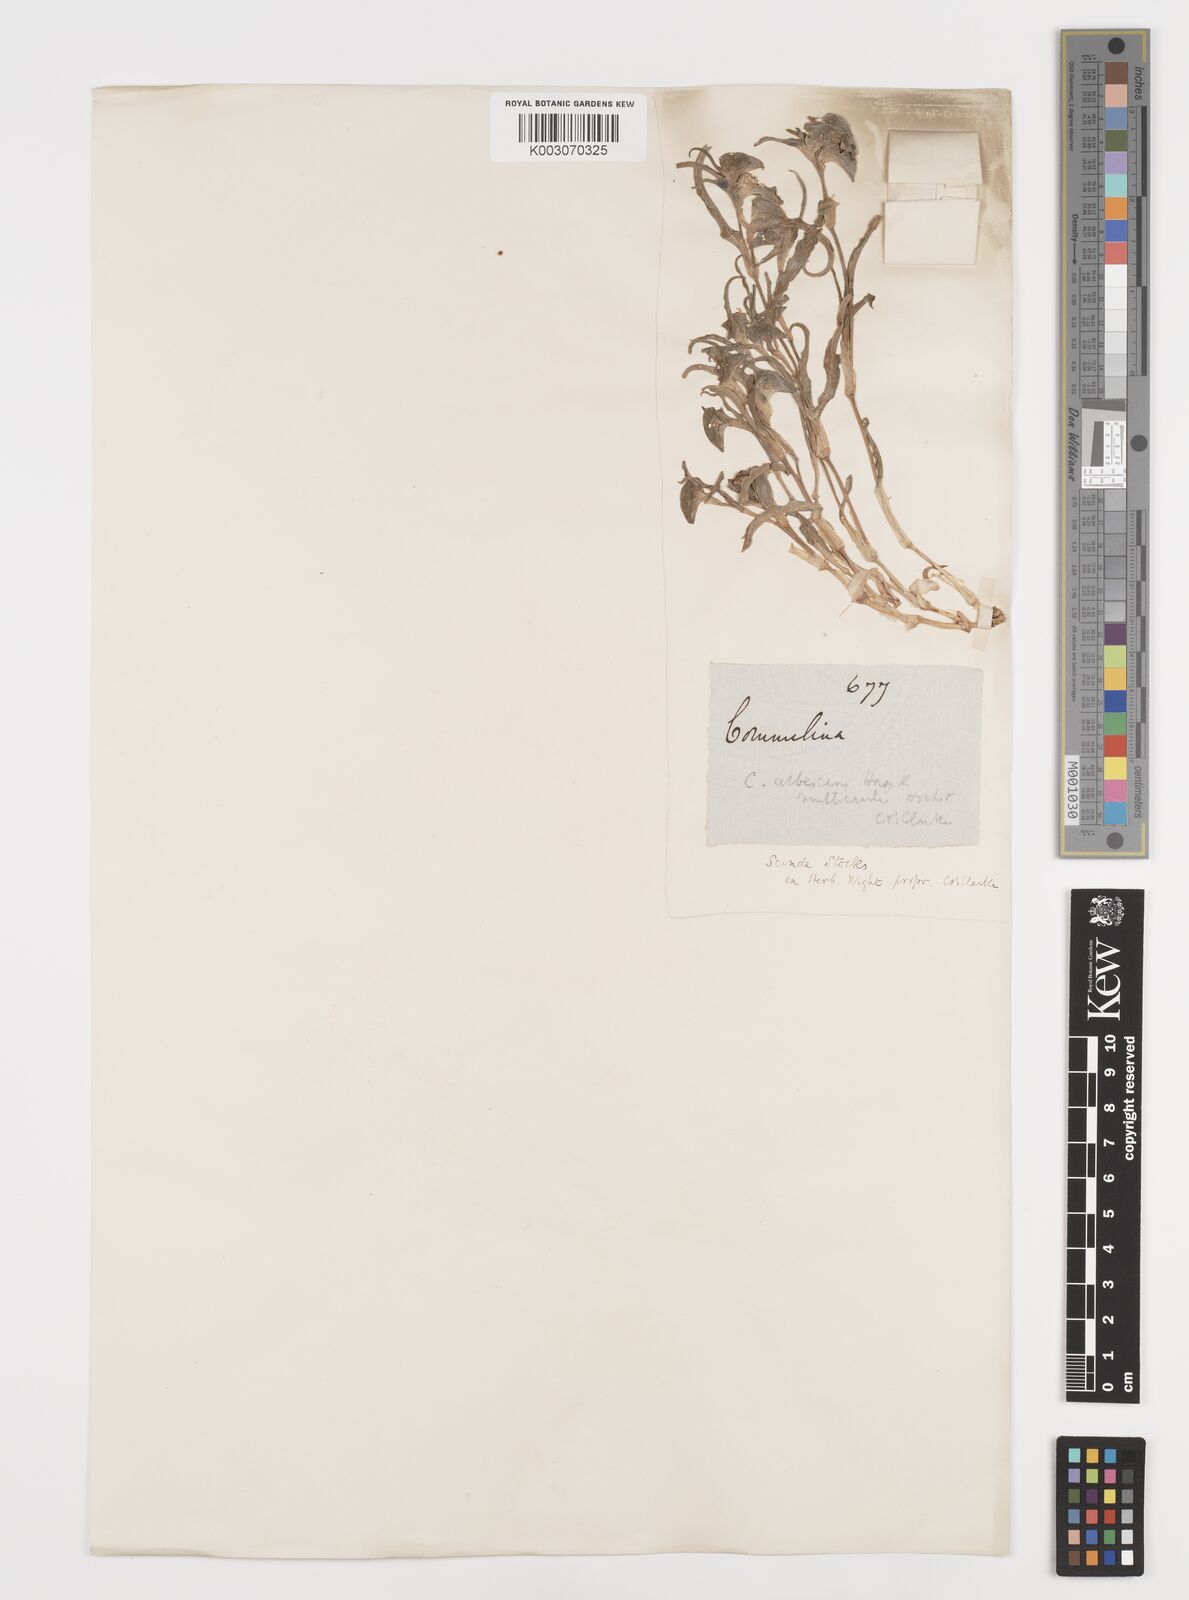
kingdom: Plantae
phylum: Tracheophyta
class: Liliopsida
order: Commelinales
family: Commelinaceae
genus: Commelina
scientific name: Commelina albescens
